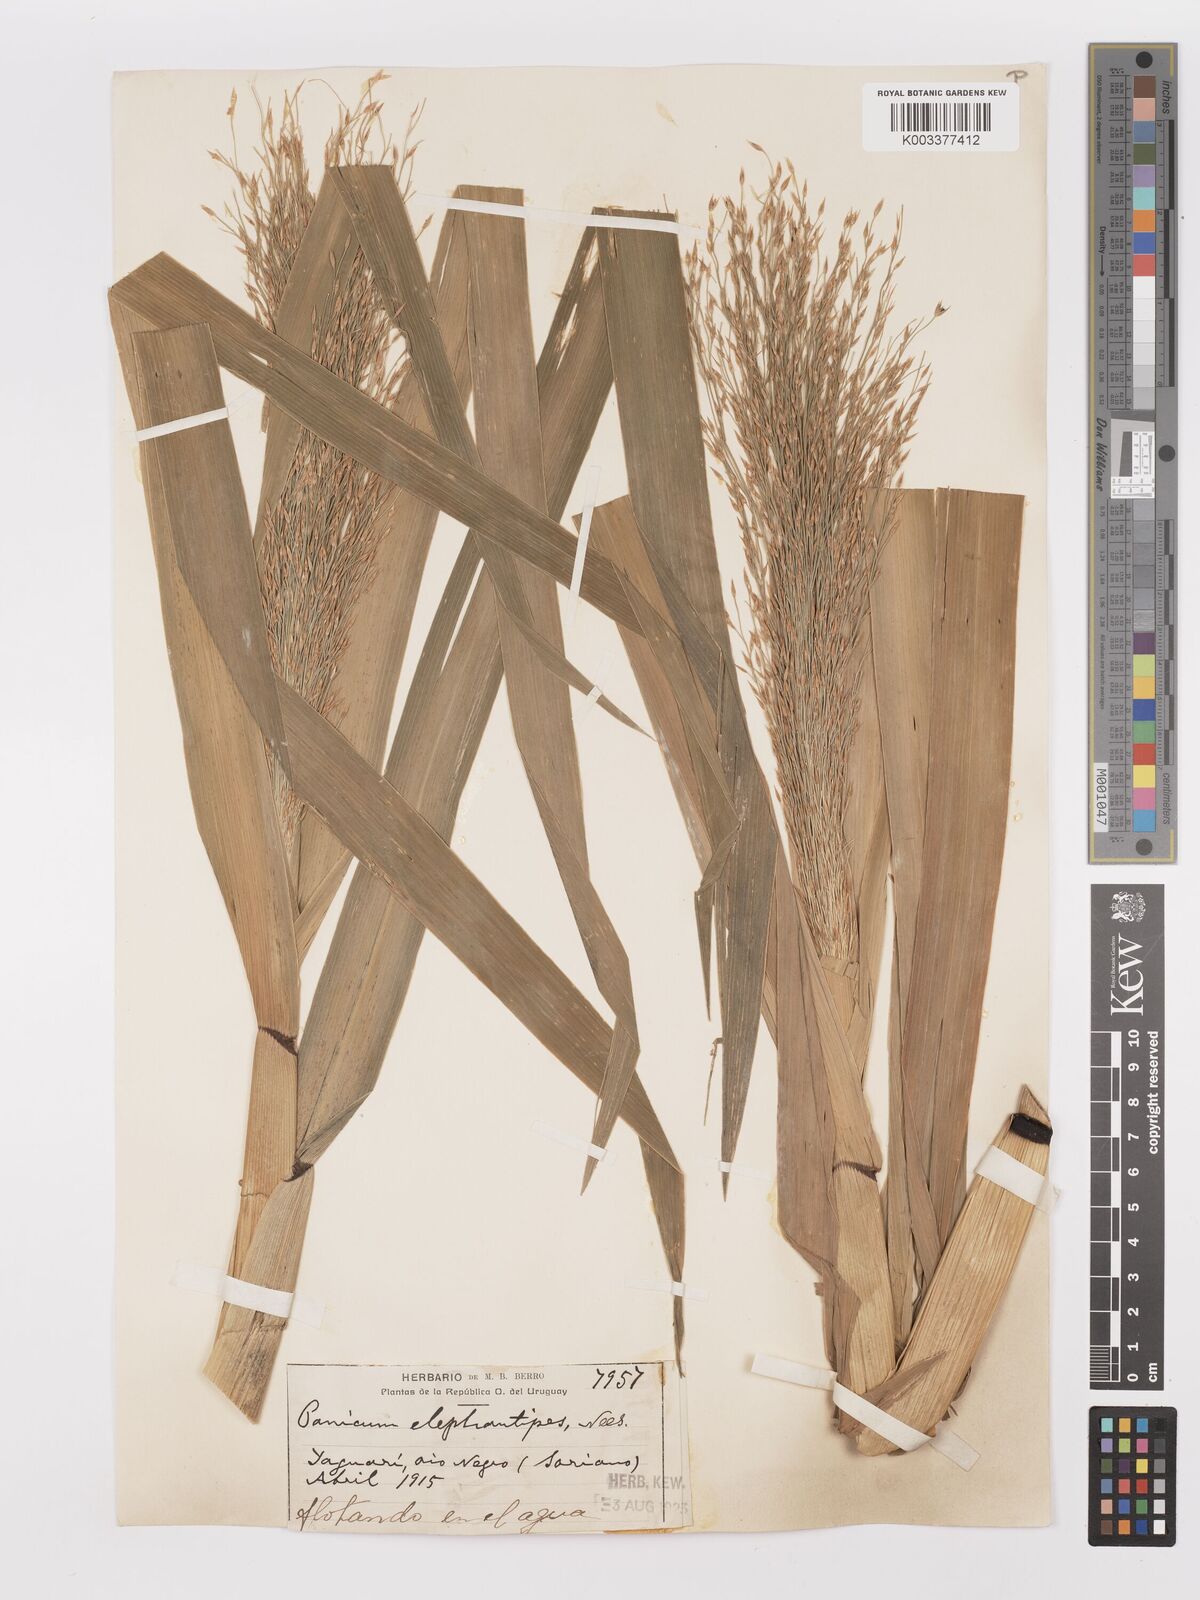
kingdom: Plantae
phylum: Tracheophyta
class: Liliopsida
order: Poales
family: Poaceae
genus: Panicum
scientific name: Panicum
